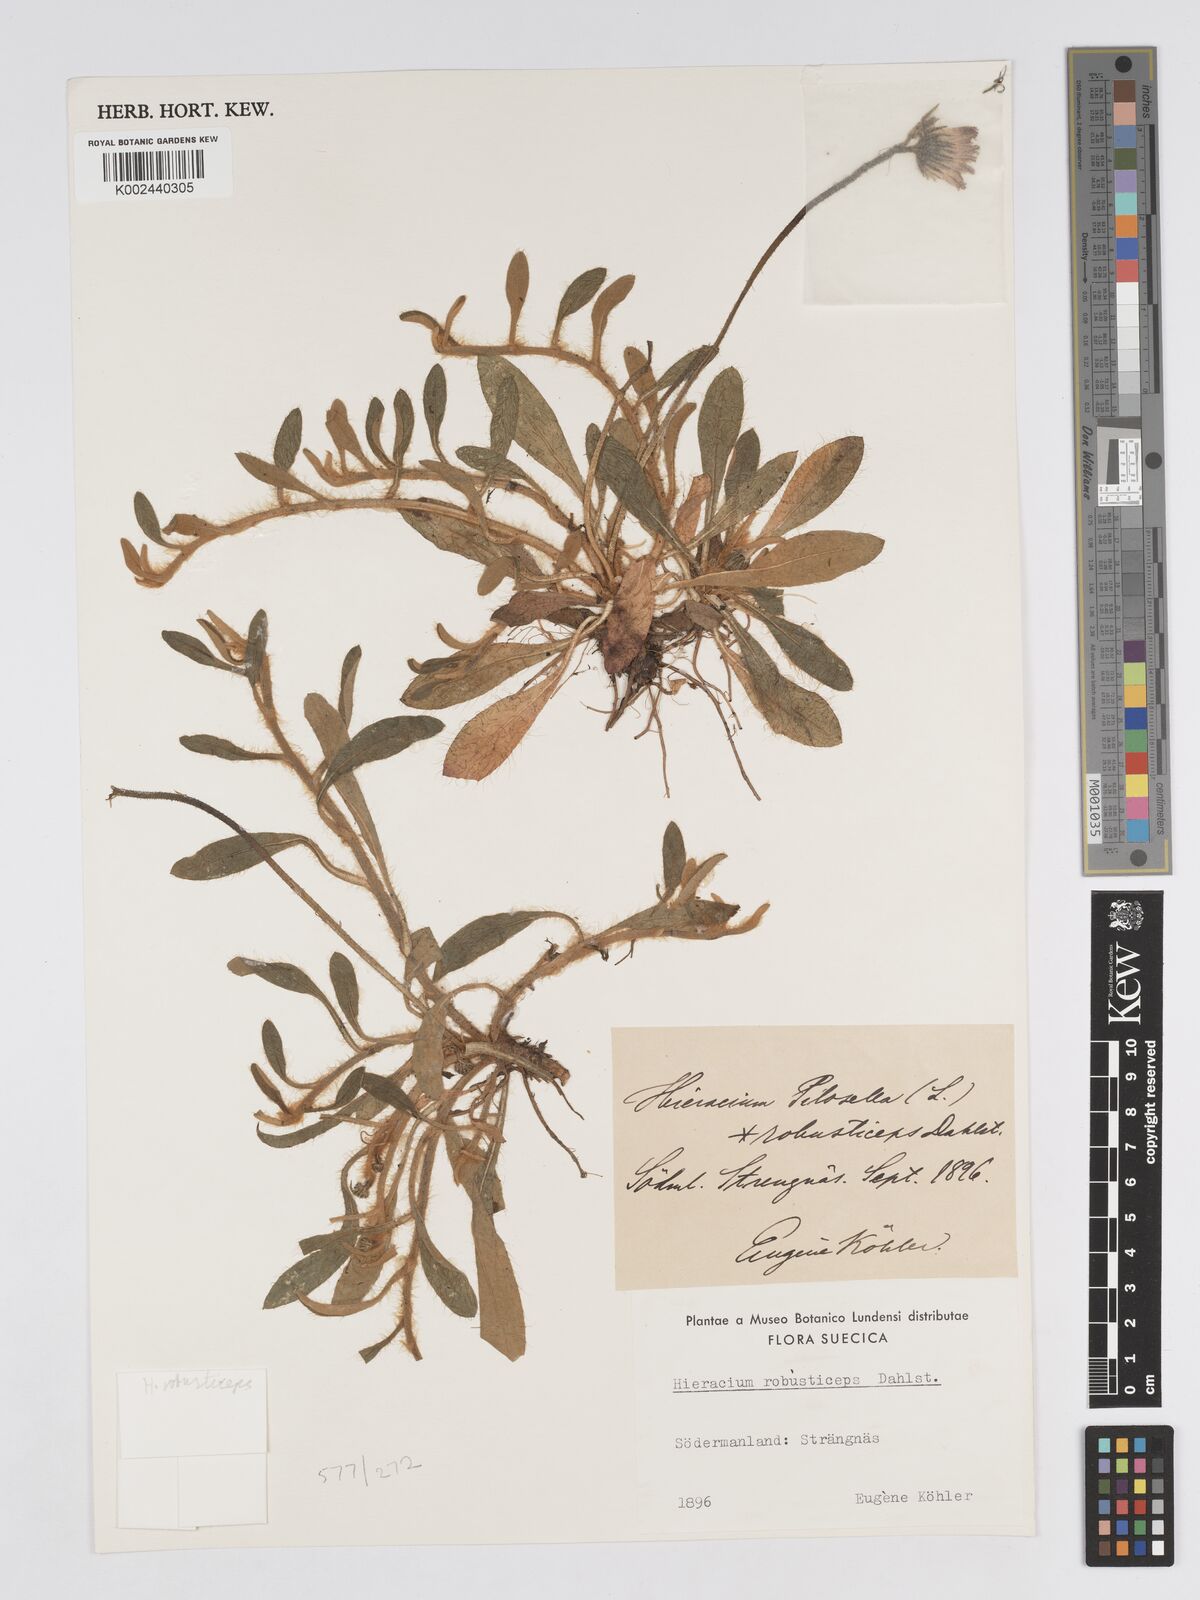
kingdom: Plantae
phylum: Tracheophyta
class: Magnoliopsida
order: Asterales
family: Asteraceae
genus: Pilosella
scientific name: Pilosella officinarum
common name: Mouse-ear hawkweed
